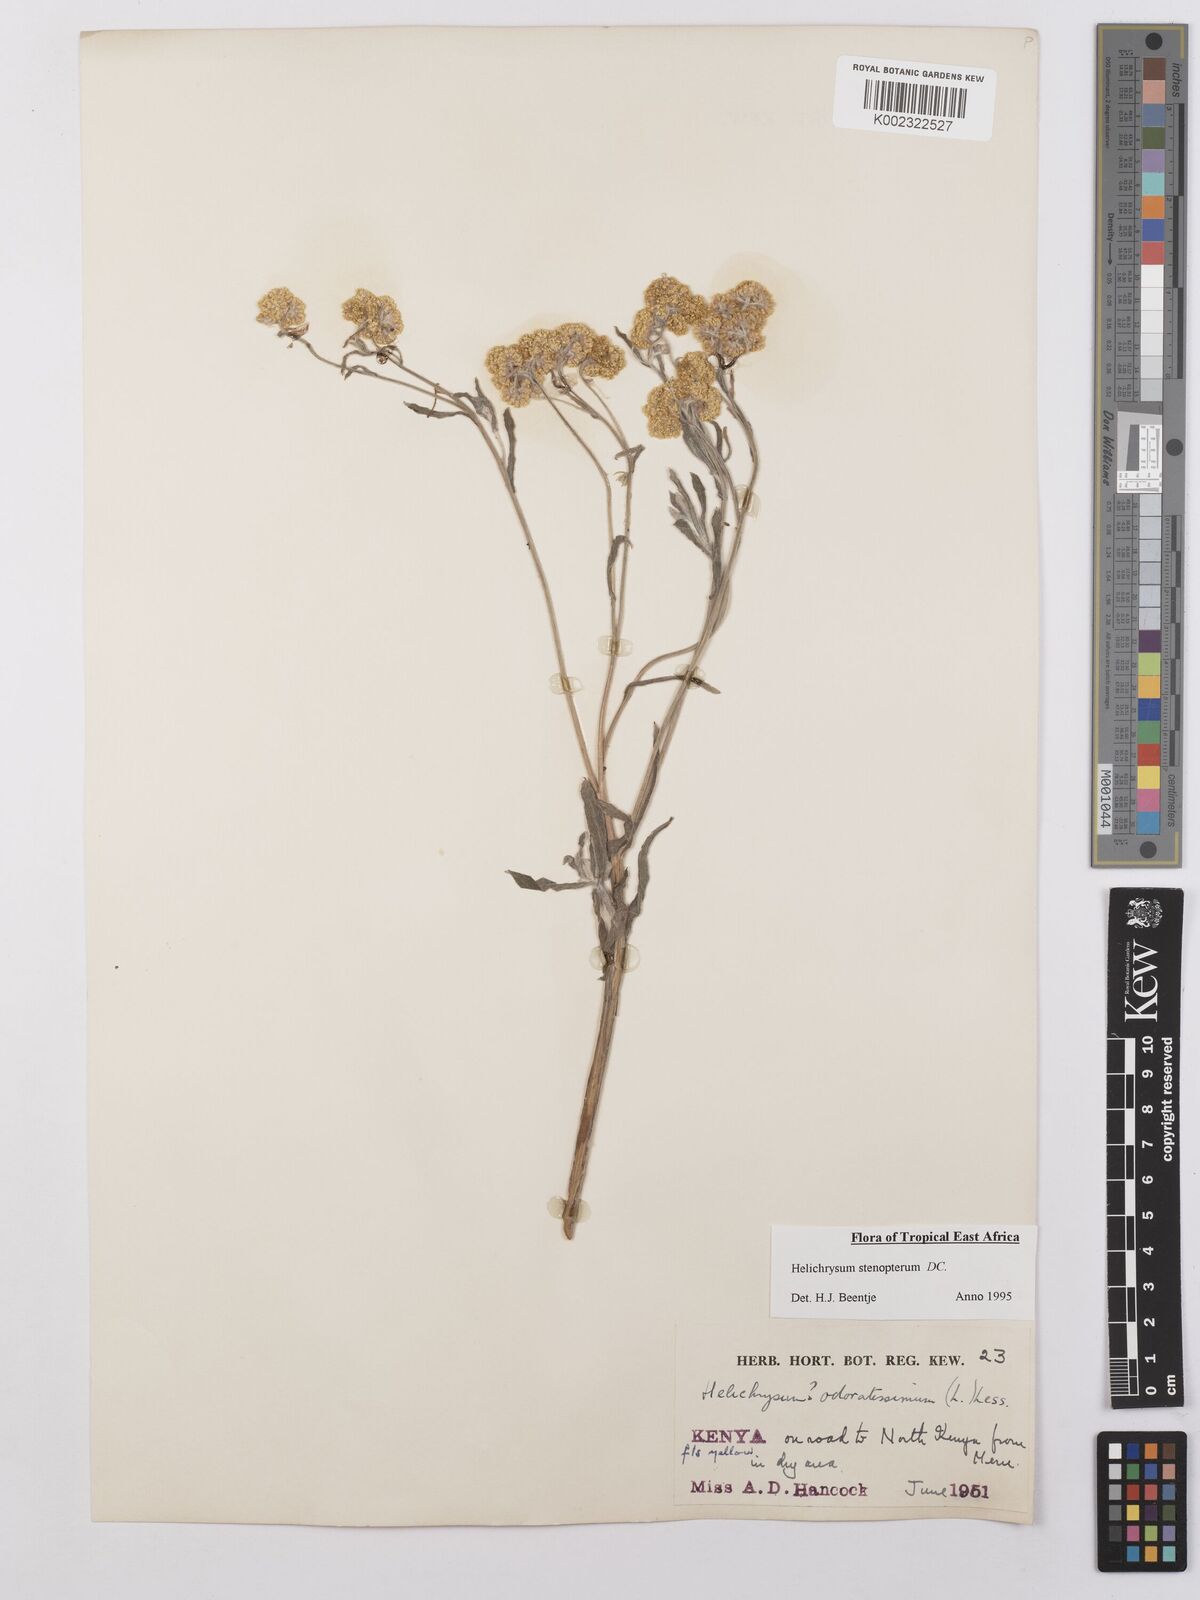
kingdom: Plantae
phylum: Tracheophyta
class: Magnoliopsida
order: Asterales
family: Asteraceae
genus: Helichrysum
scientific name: Helichrysum stenopterum
